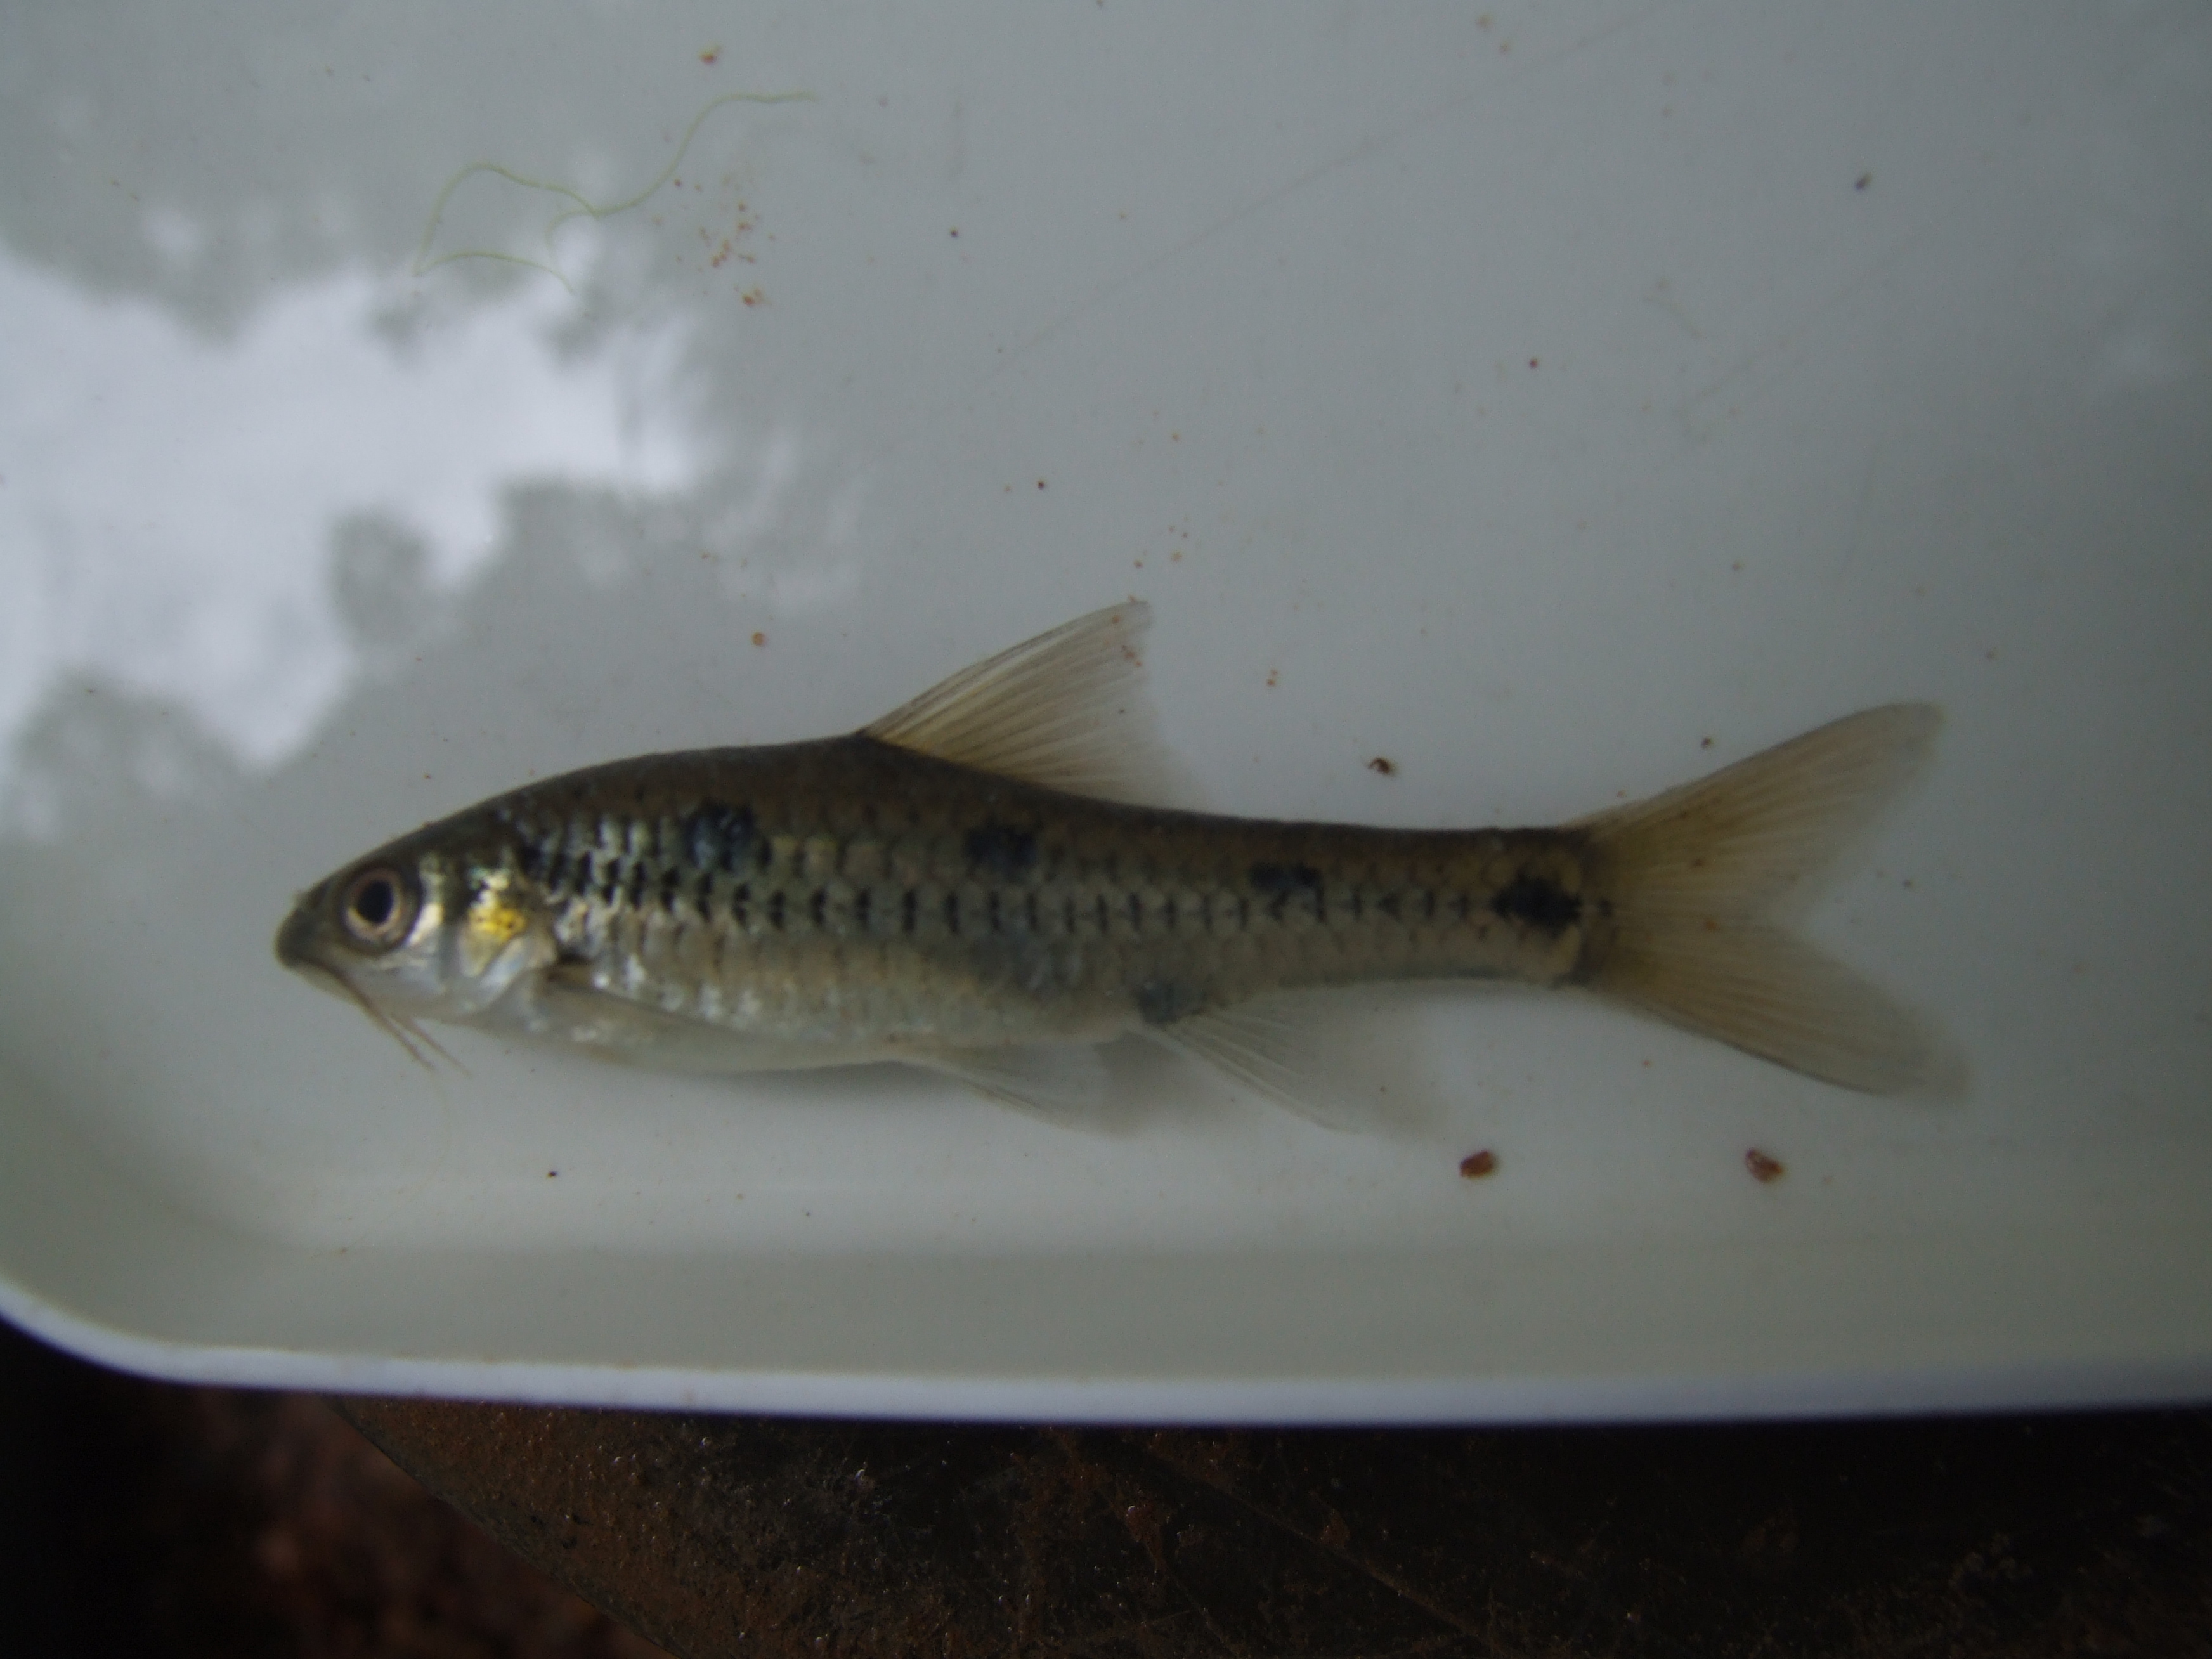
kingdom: Animalia
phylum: Chordata
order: Cypriniformes
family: Cyprinidae
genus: Enteromius
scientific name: Enteromius lineomaculatus
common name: Line-spotted barb
